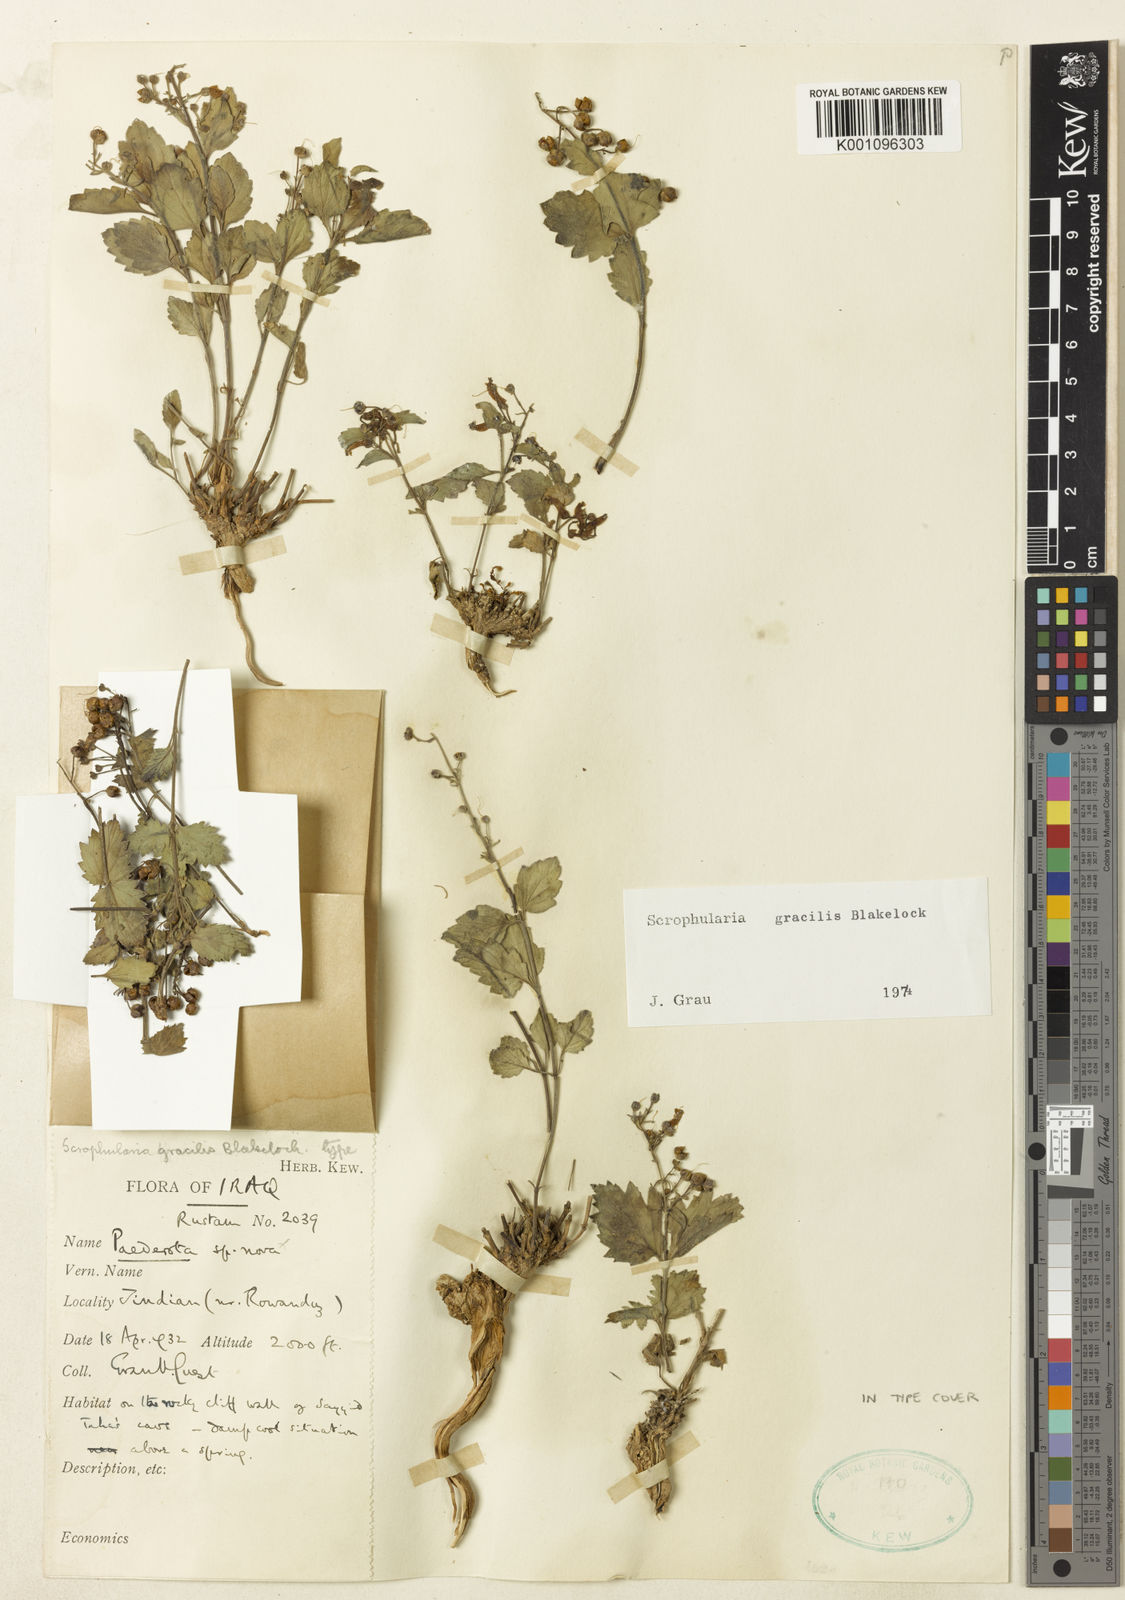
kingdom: Plantae
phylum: Tracheophyta
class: Magnoliopsida
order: Lamiales
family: Scrophulariaceae
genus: Scrophularia
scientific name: Scrophularia gracilis
